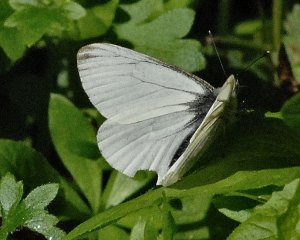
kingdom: Animalia
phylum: Arthropoda
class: Insecta
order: Lepidoptera
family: Pieridae
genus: Pieris
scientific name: Pieris marginalis
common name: Margined White
